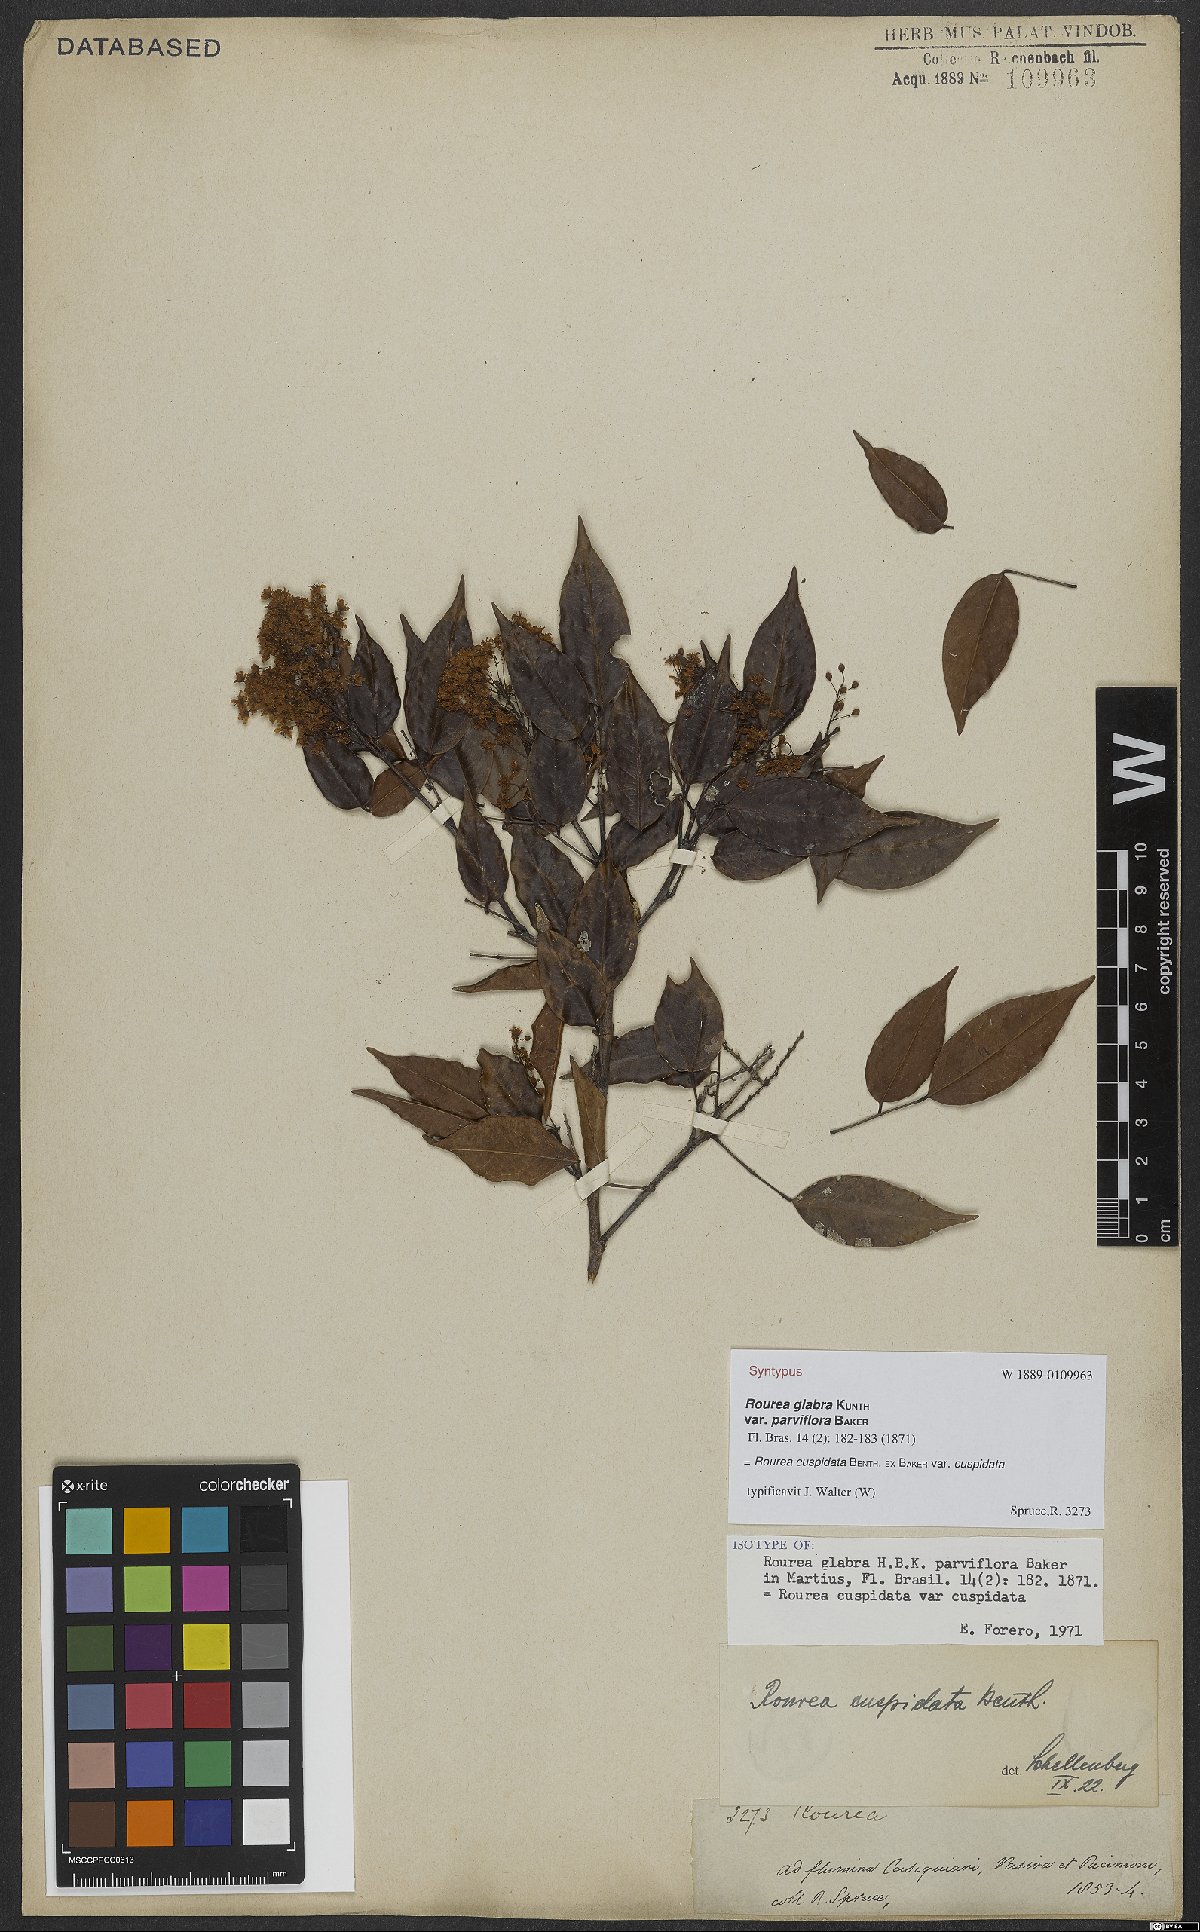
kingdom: Plantae
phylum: Tracheophyta
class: Magnoliopsida
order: Oxalidales
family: Connaraceae
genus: Rourea
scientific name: Rourea cuspidata
